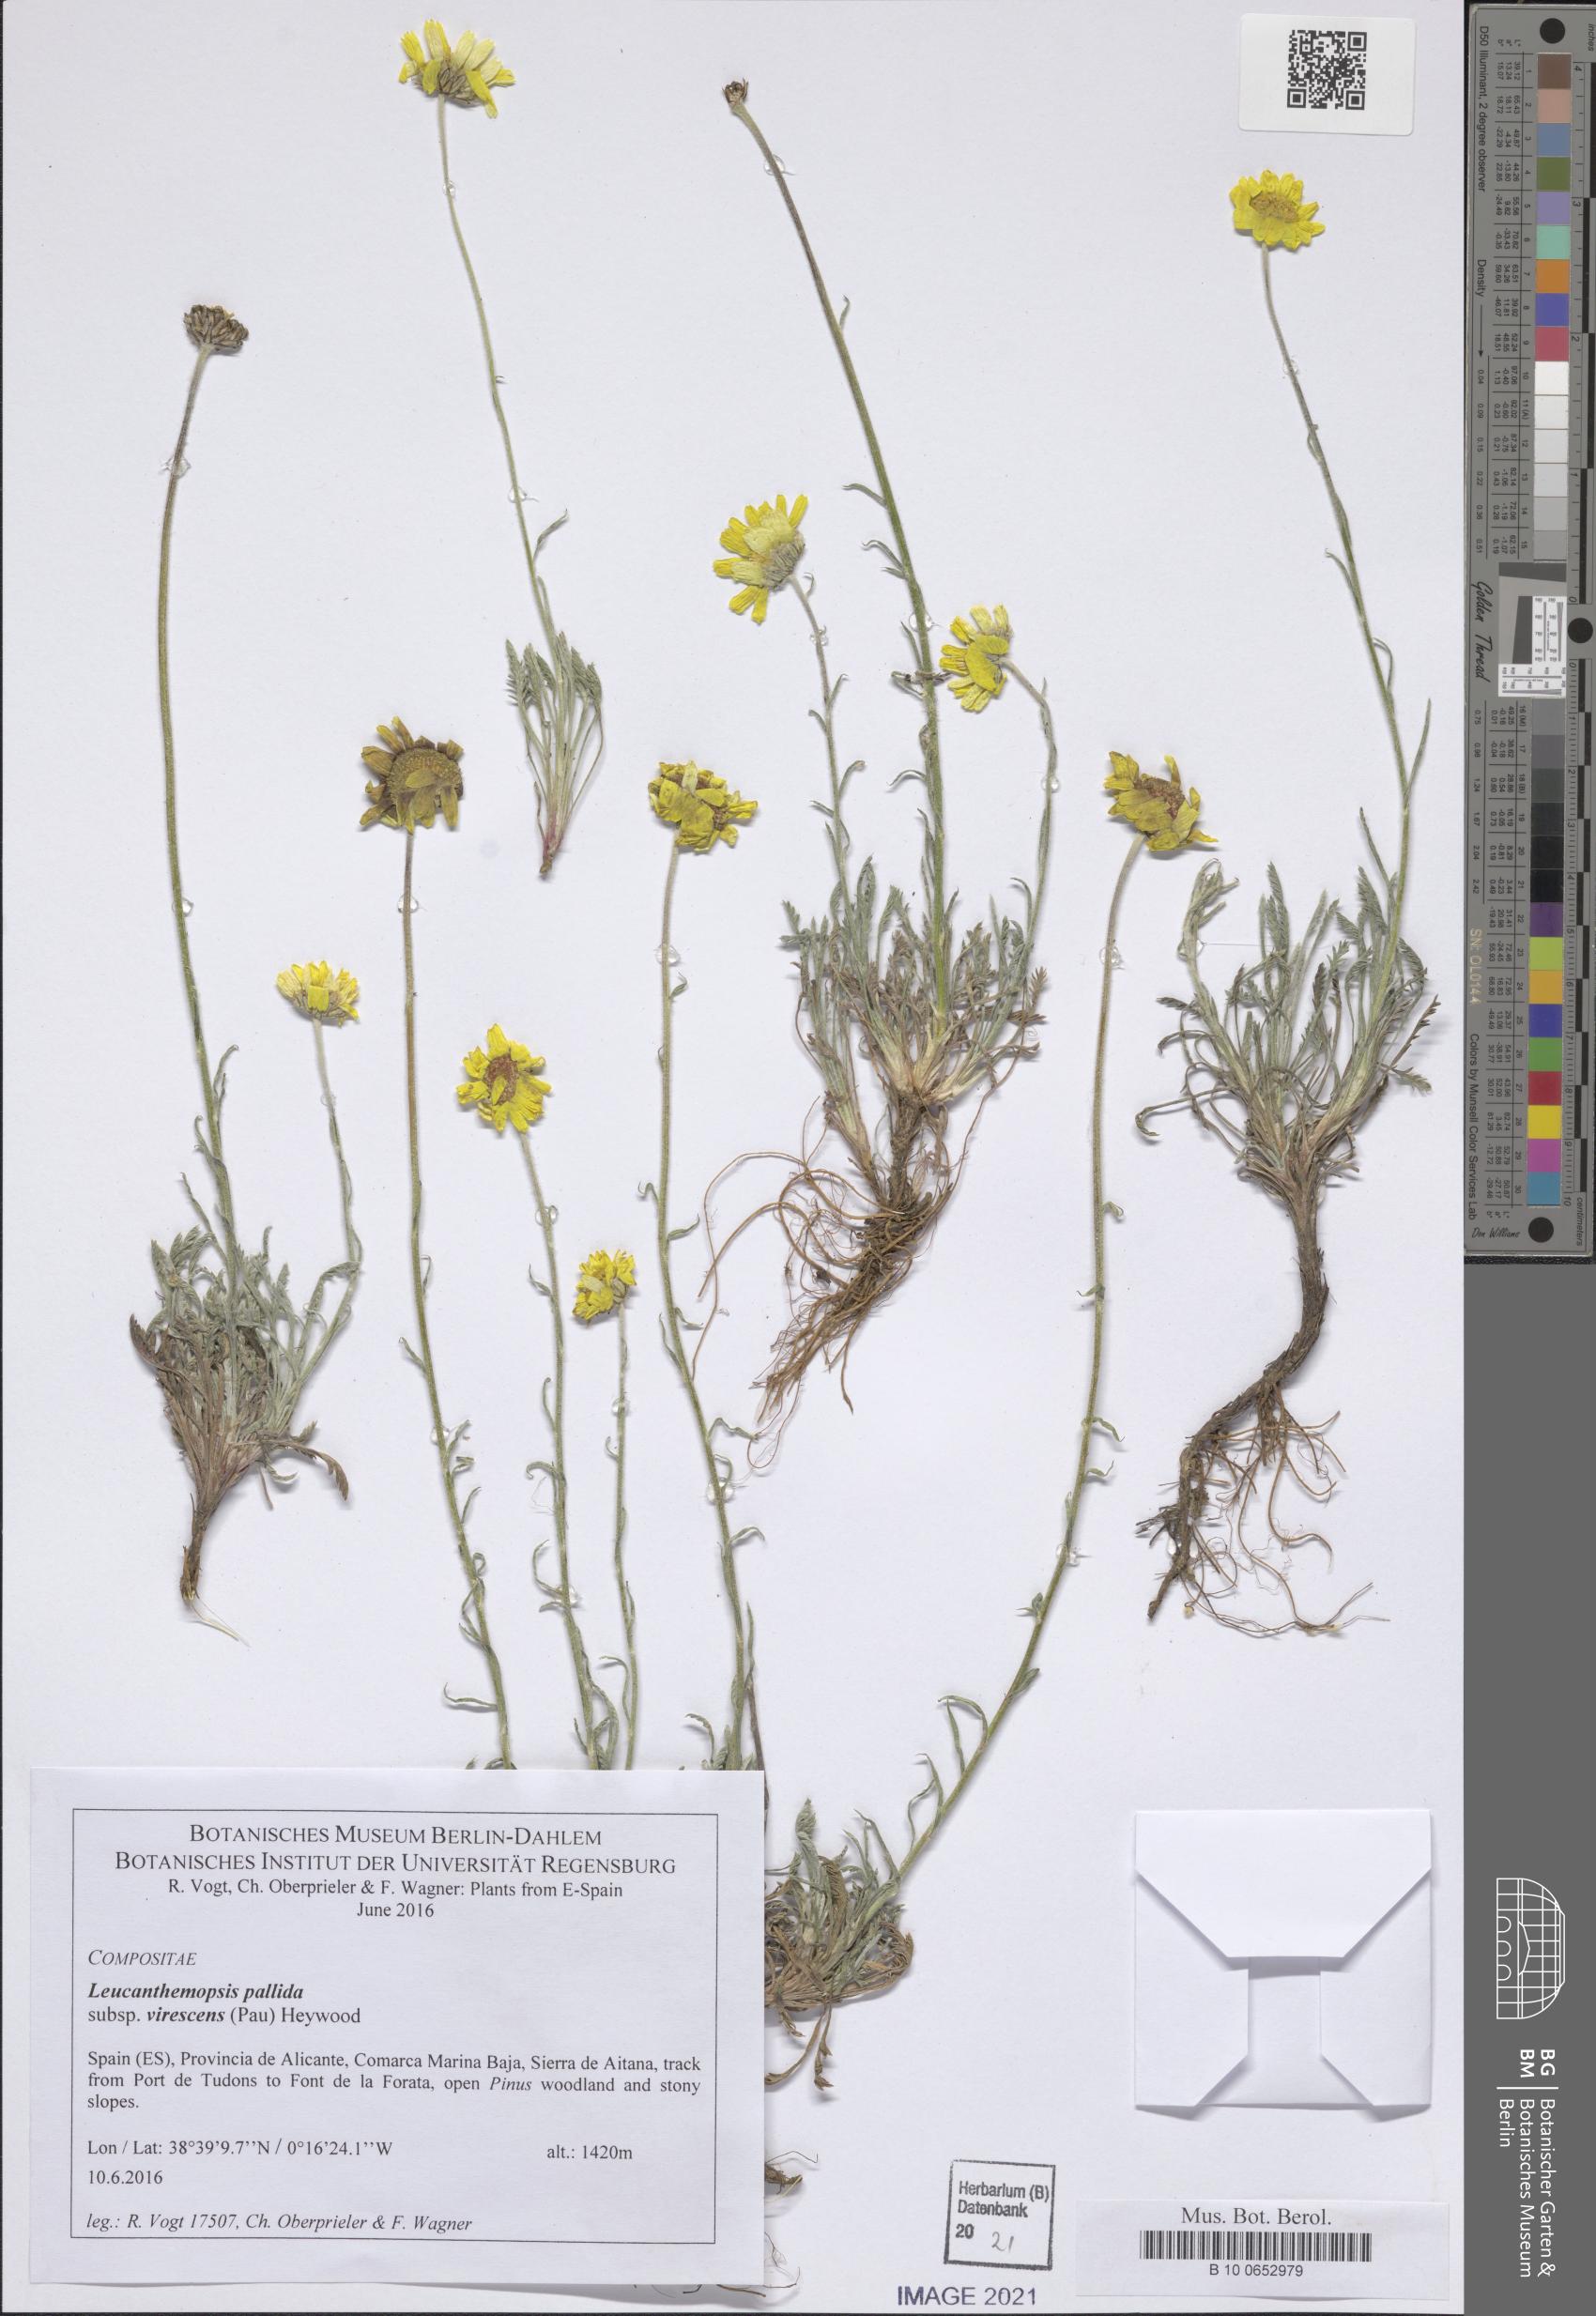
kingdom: Plantae
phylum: Tracheophyta
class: Magnoliopsida
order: Asterales
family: Asteraceae
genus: Leucanthemopsis
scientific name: Leucanthemopsis pallida
